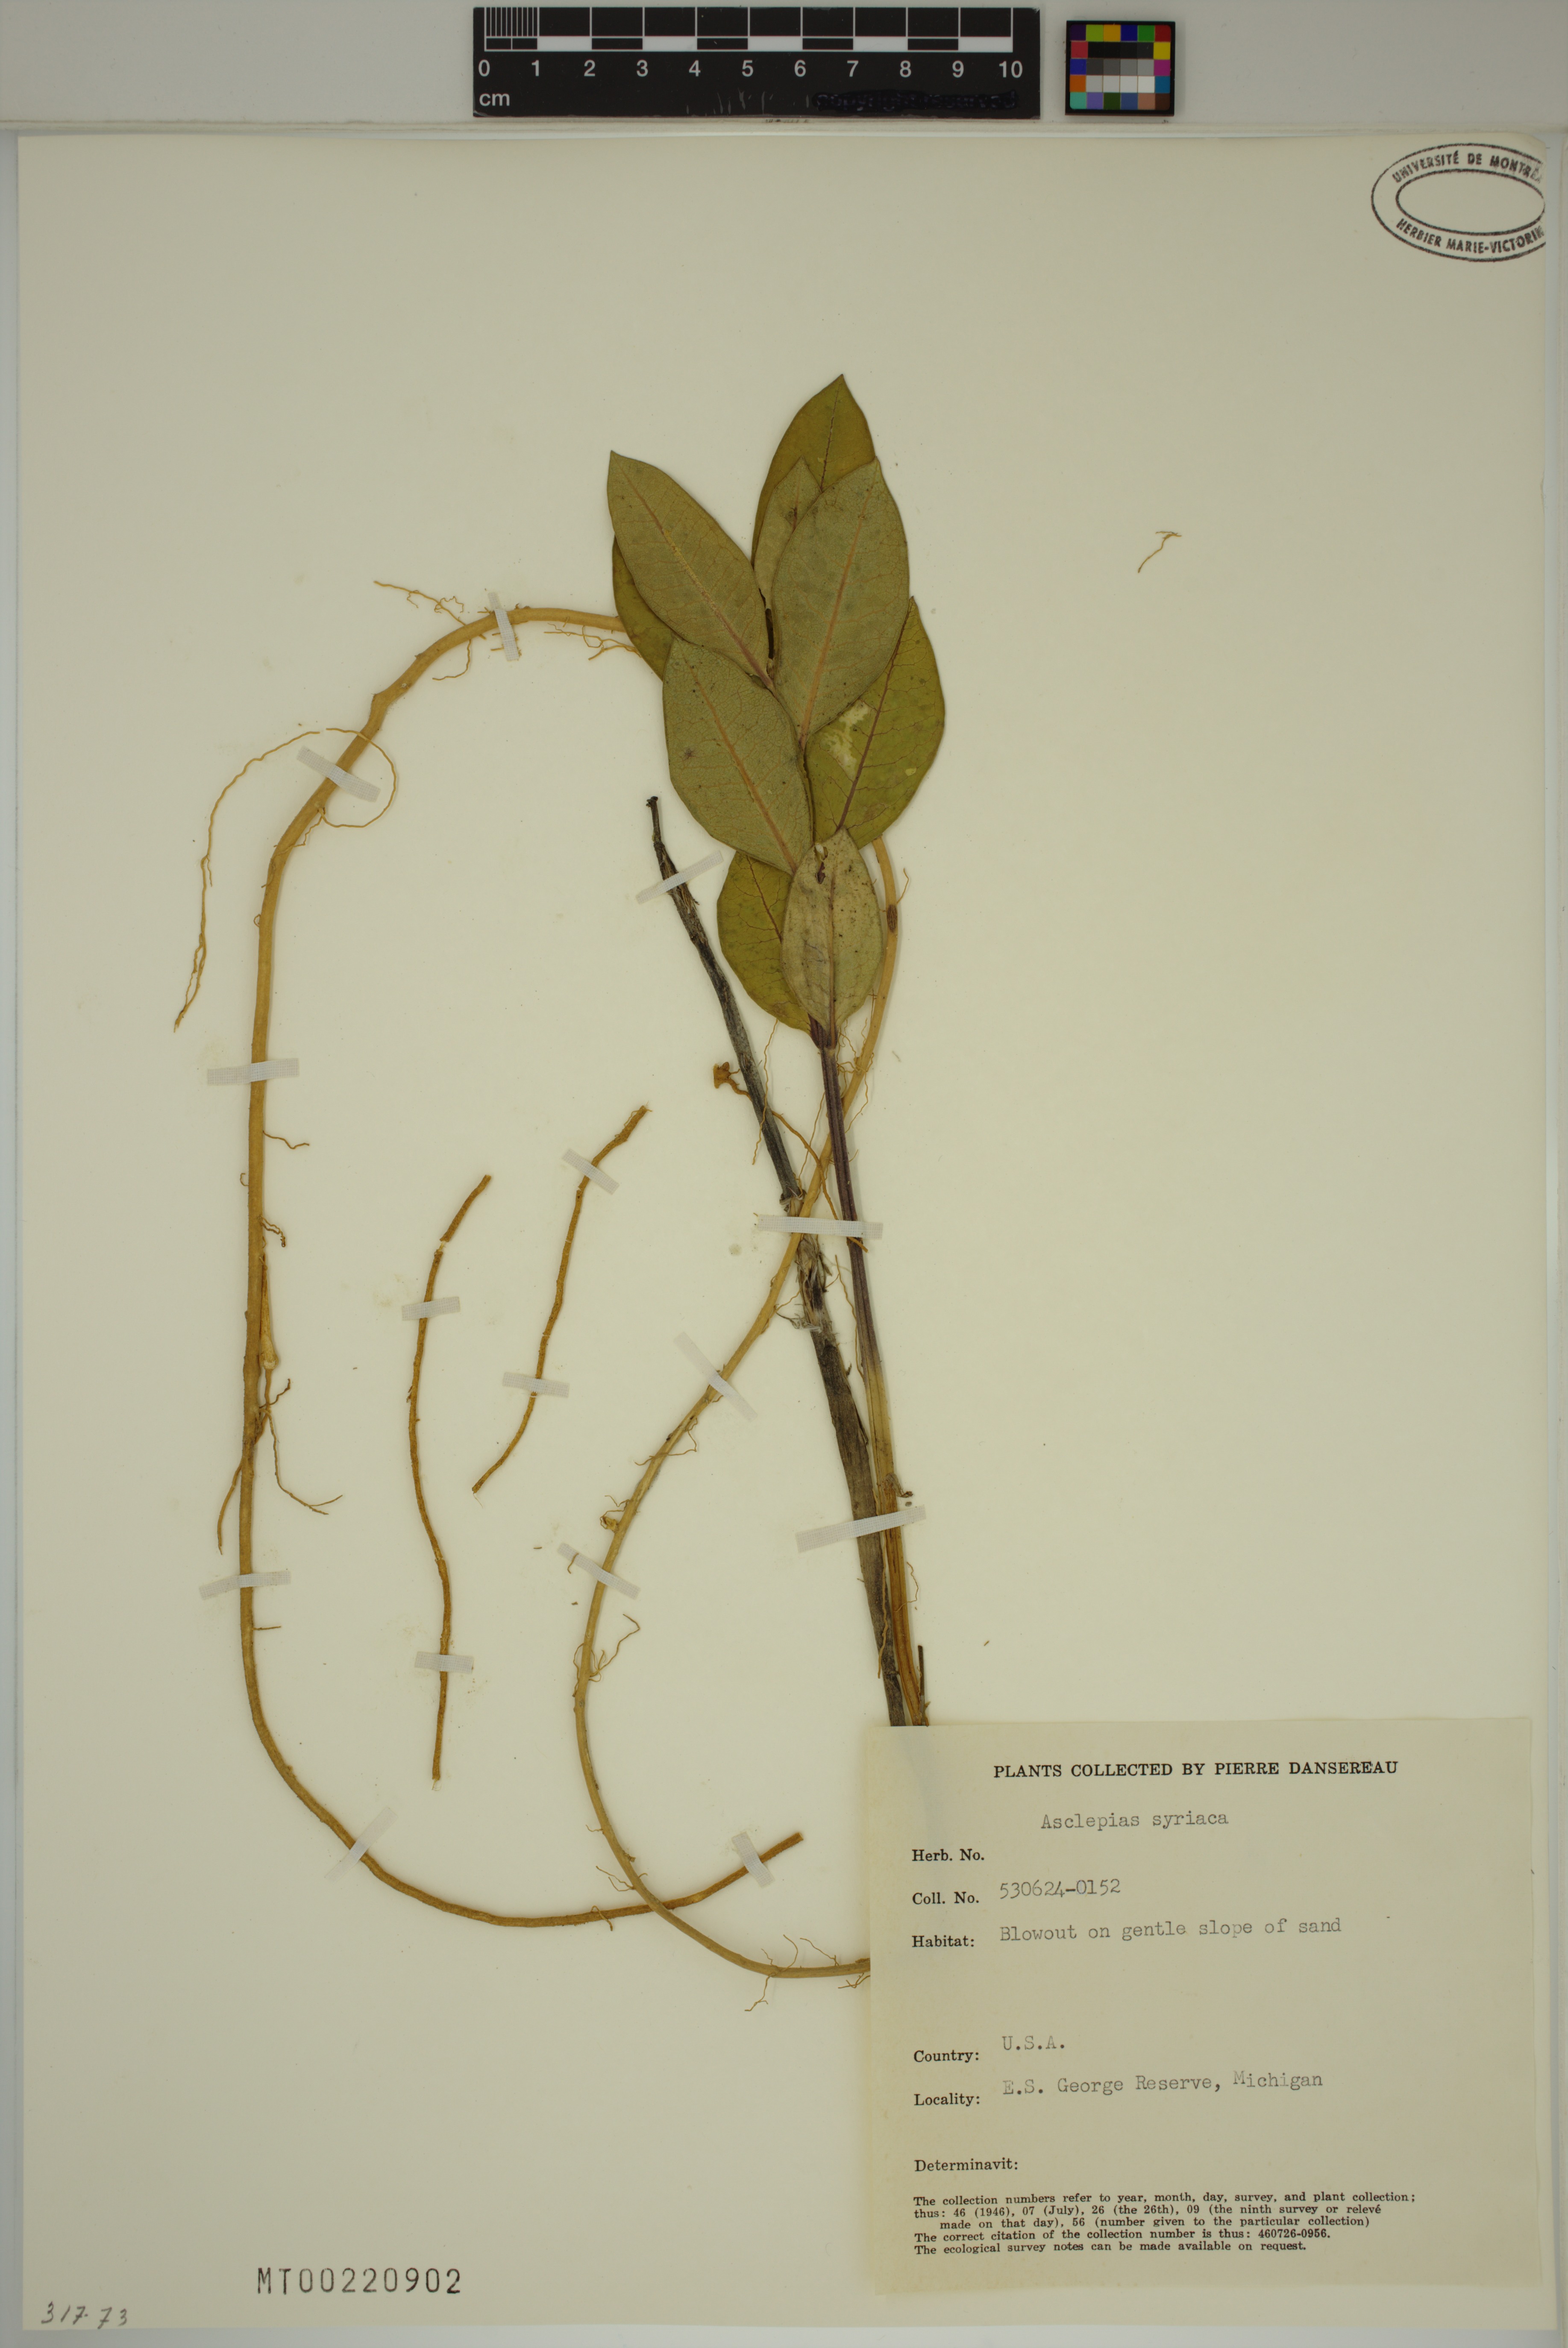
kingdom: Plantae
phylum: Tracheophyta
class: Magnoliopsida
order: Gentianales
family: Apocynaceae
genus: Asclepias
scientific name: Asclepias syriaca
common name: Common milkweed
